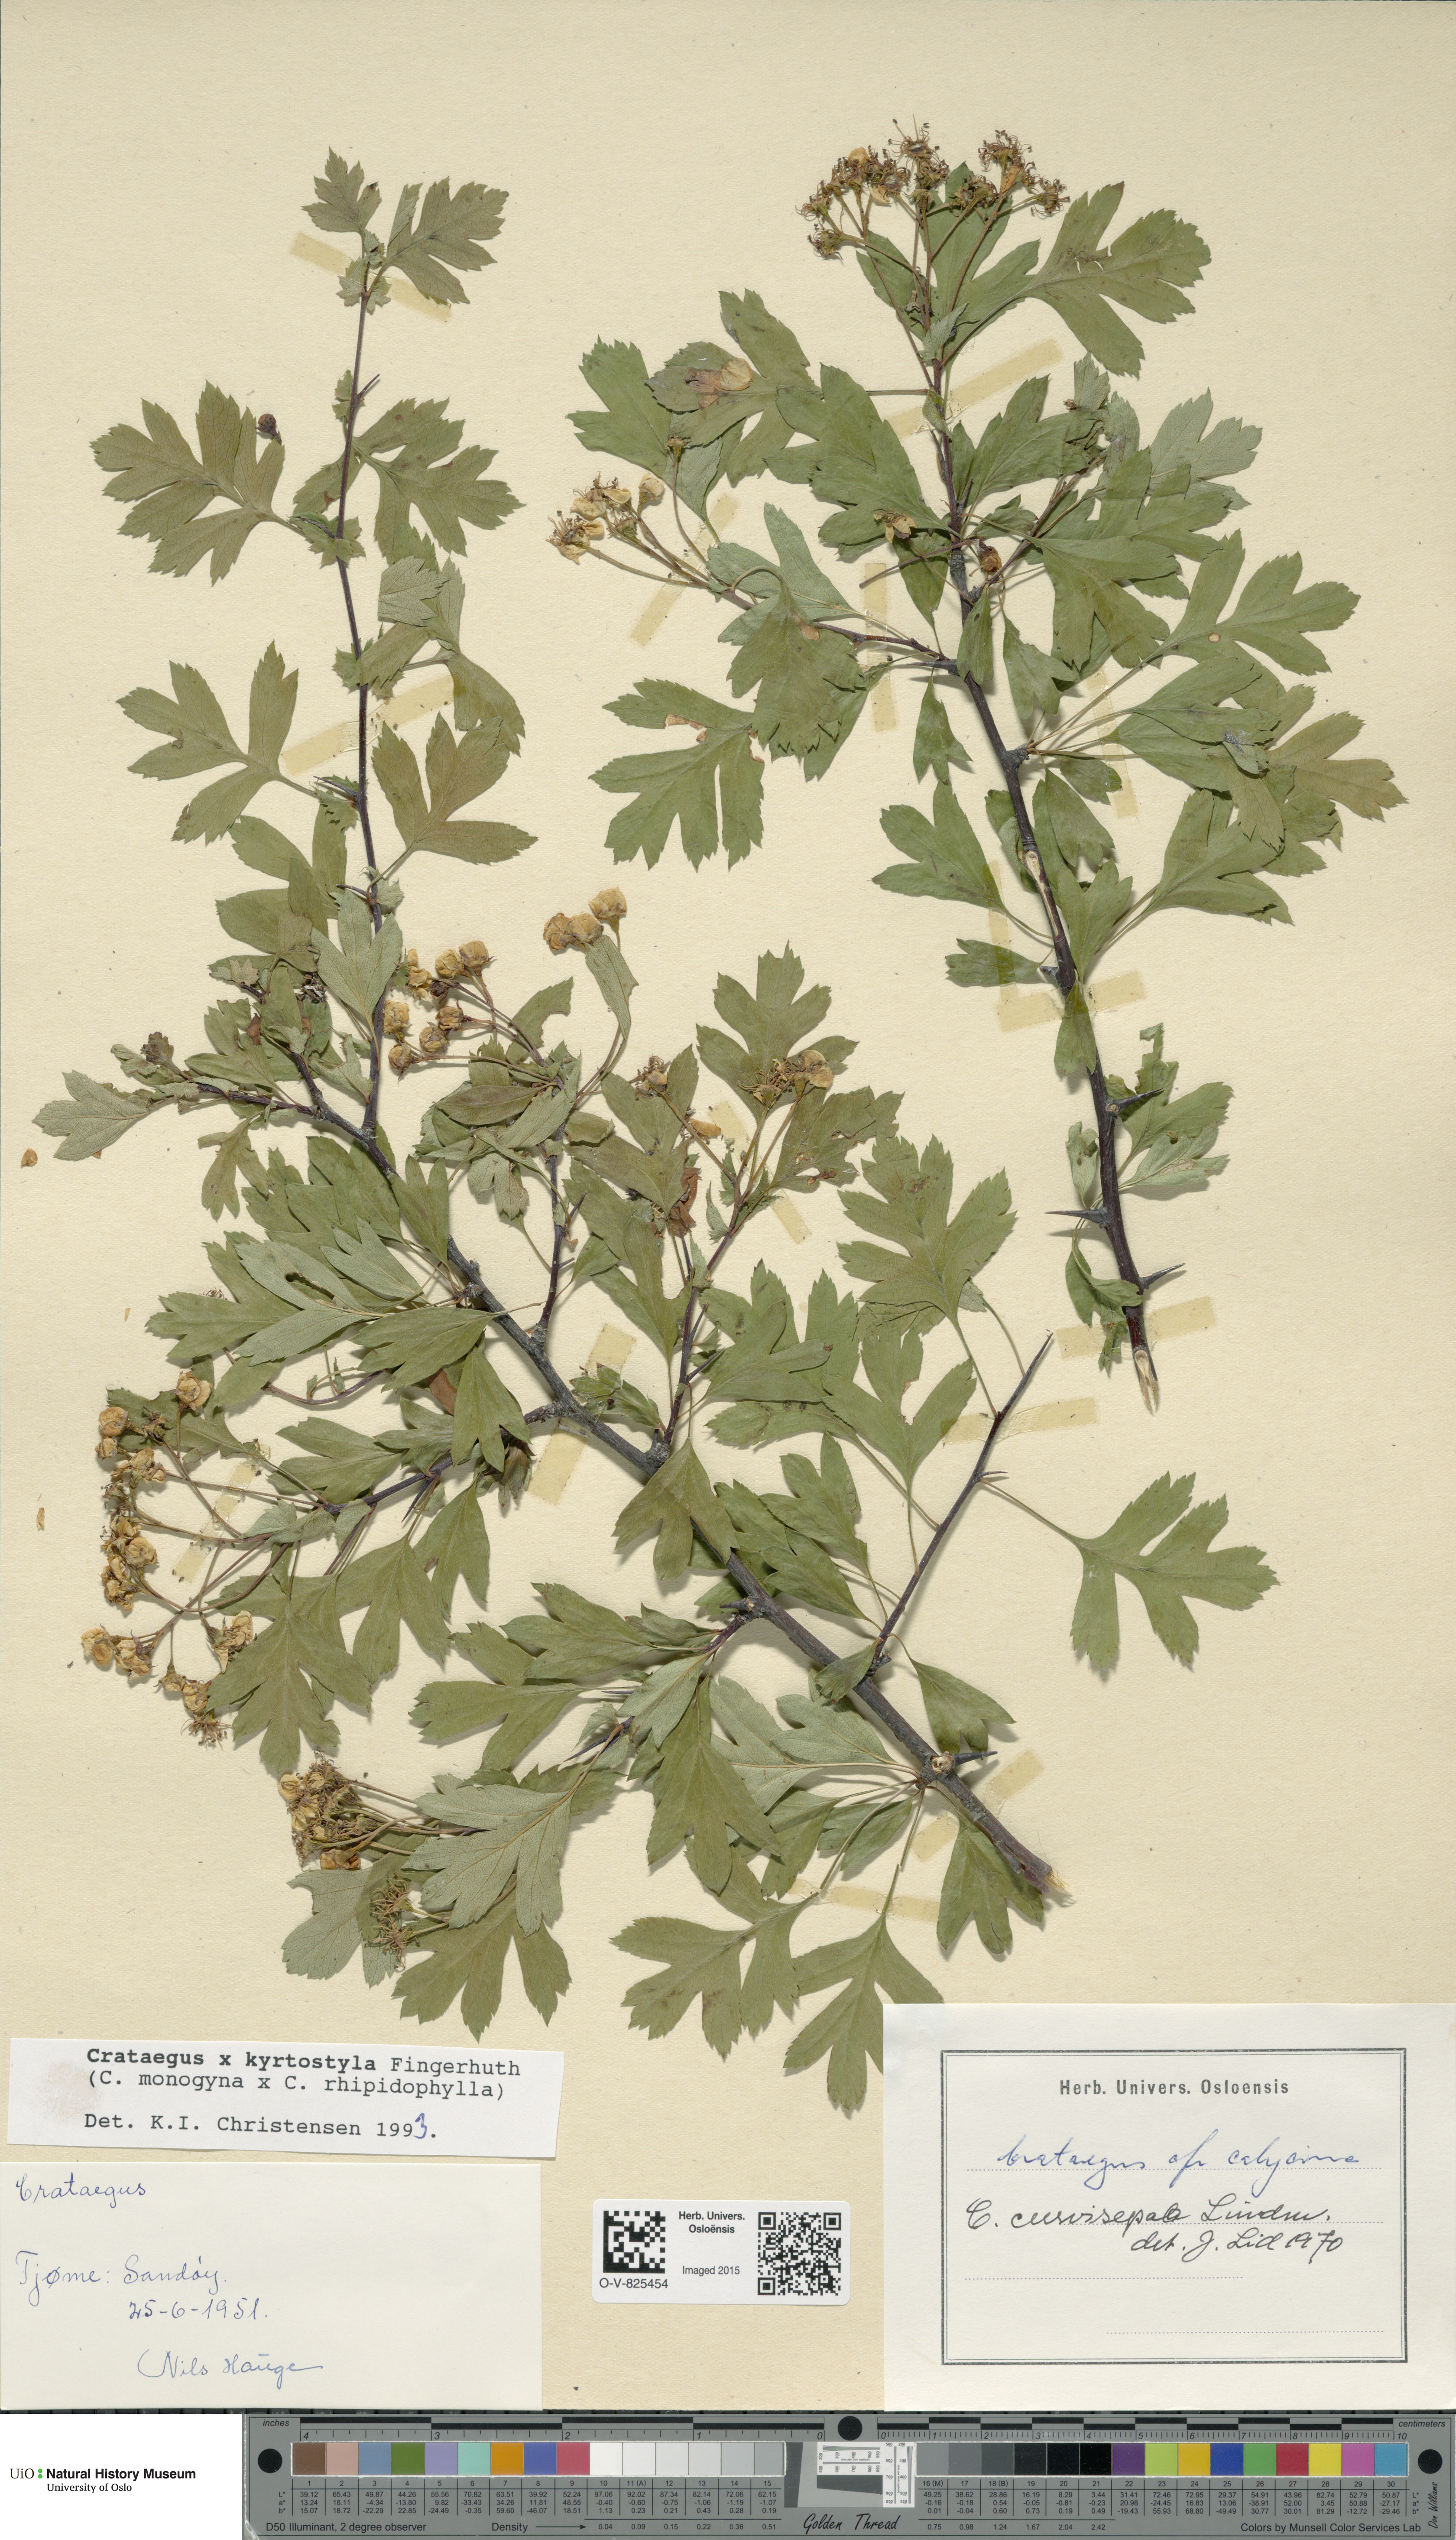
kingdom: Plantae
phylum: Tracheophyta
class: Magnoliopsida
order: Rosales
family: Rosaceae
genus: Crataegus
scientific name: Crataegus kyrtostyla
